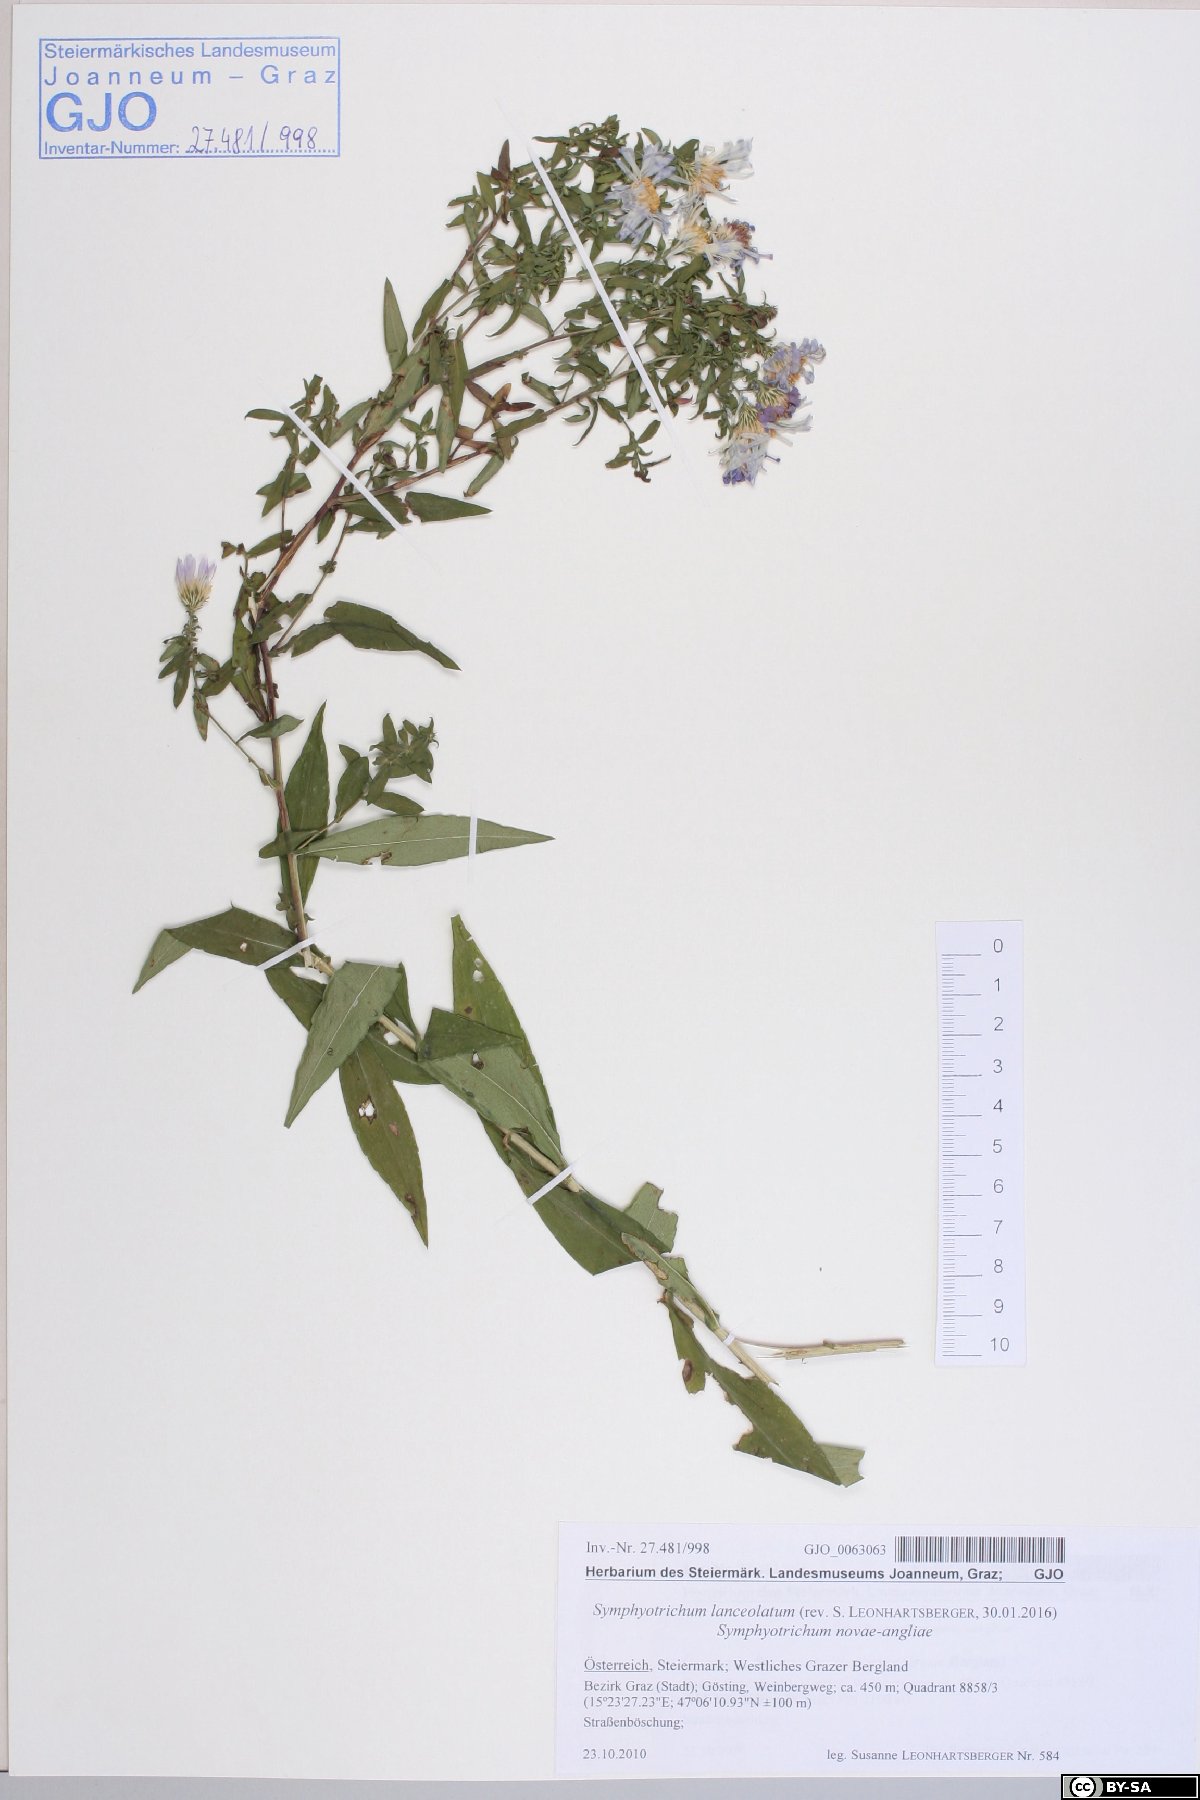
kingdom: Plantae
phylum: Tracheophyta
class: Magnoliopsida
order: Asterales
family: Asteraceae
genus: Symphyotrichum
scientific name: Symphyotrichum lanceolatum
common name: Panicled aster
